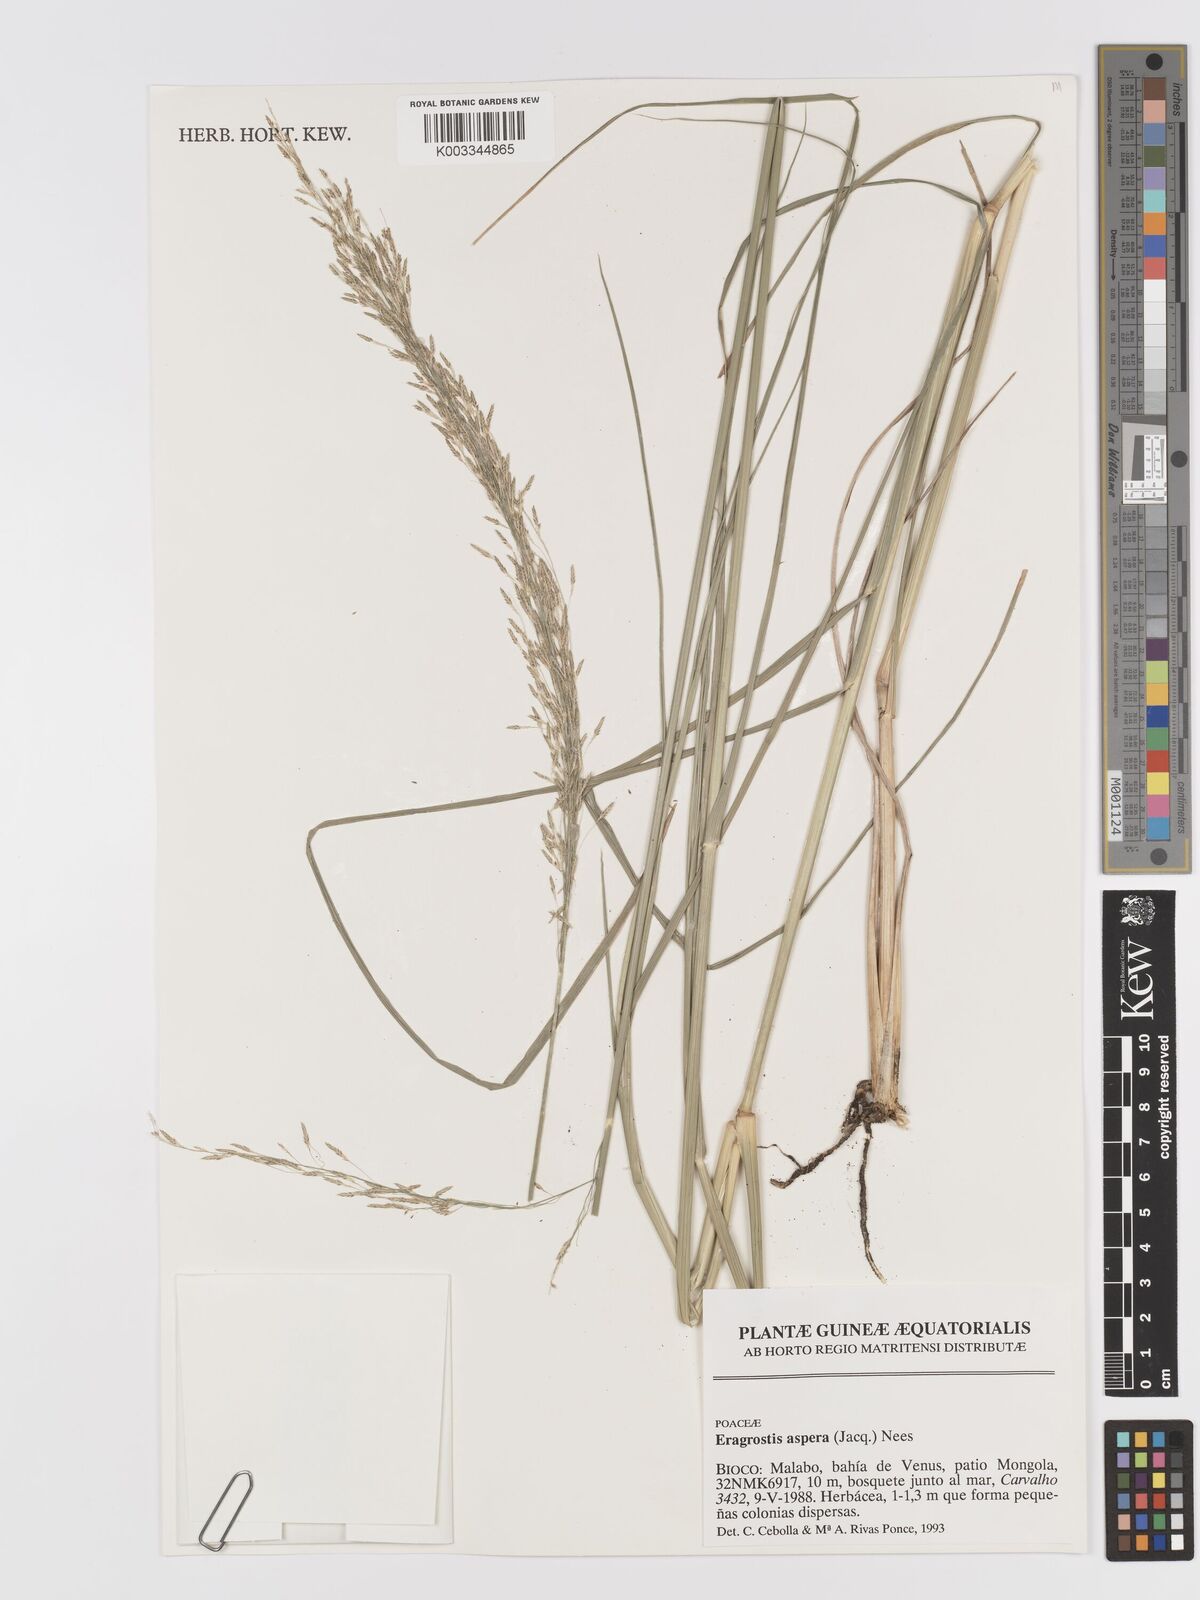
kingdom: Plantae
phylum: Tracheophyta
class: Liliopsida
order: Poales
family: Poaceae
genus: Eragrostis
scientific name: Eragrostis aspera
